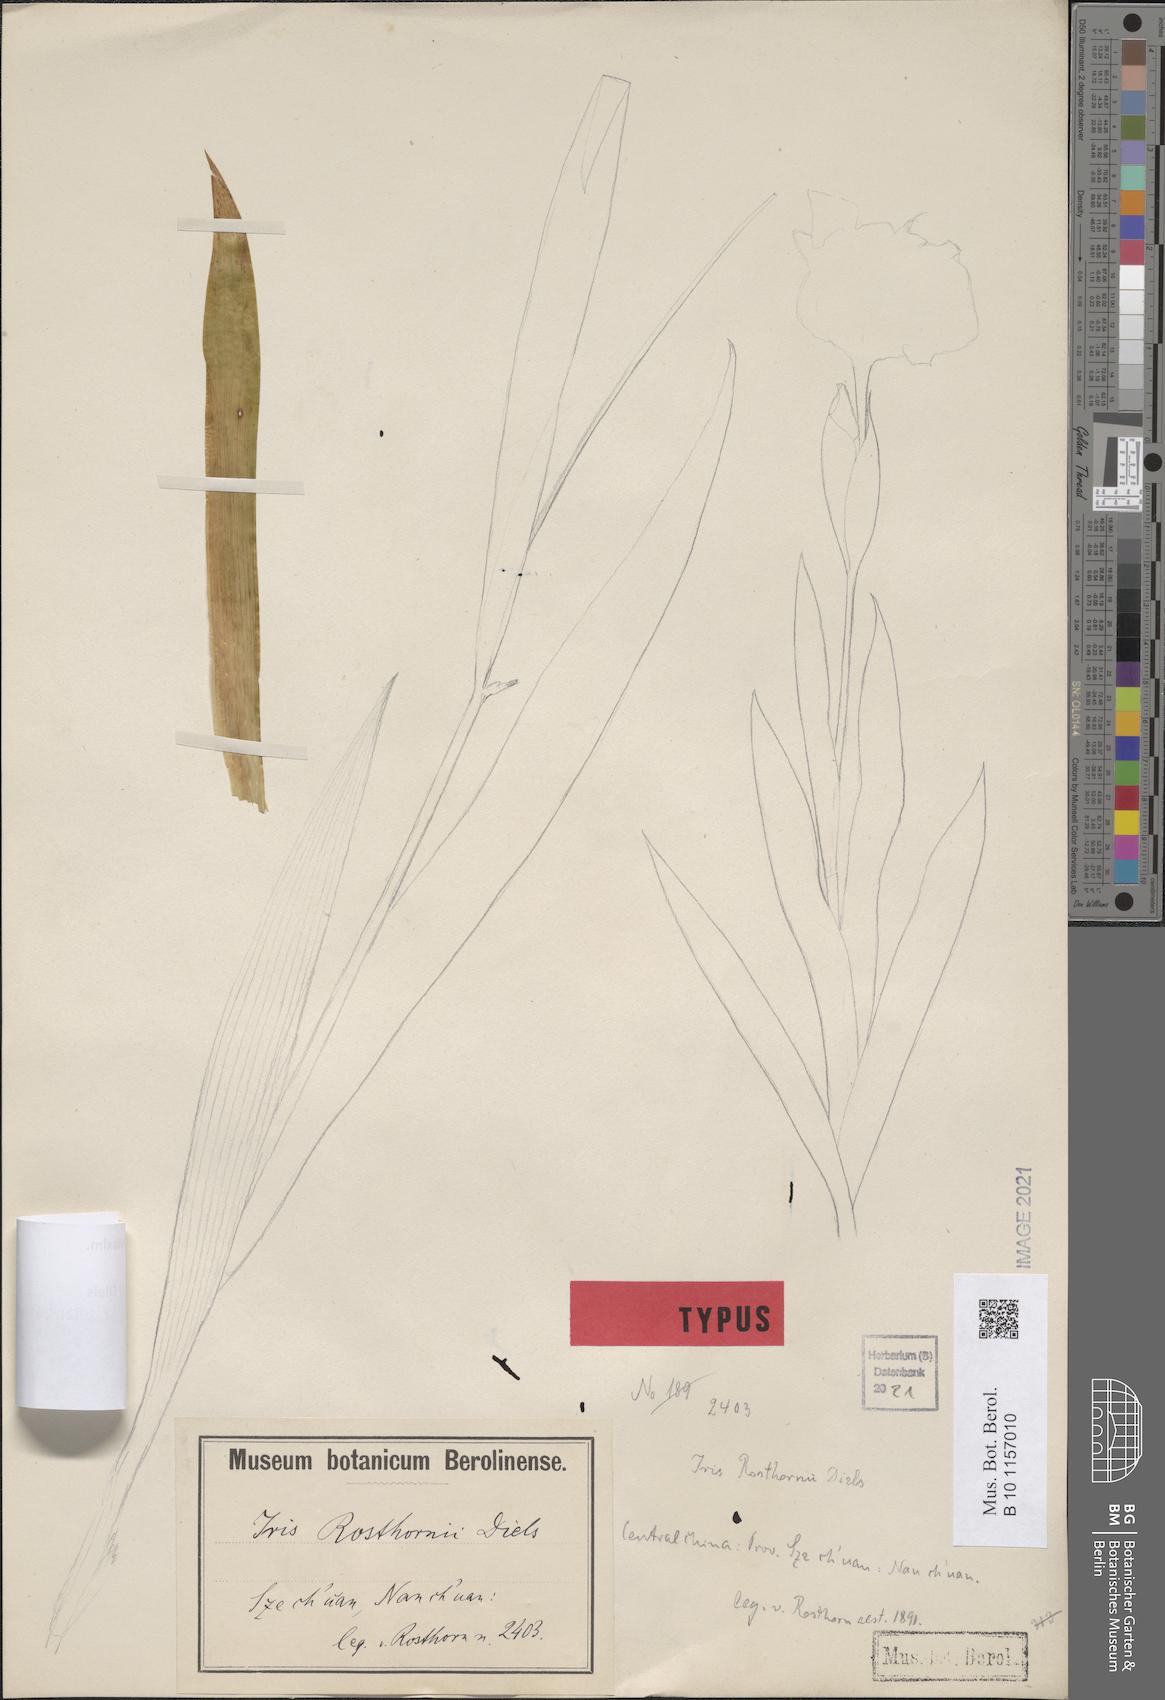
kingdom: Plantae
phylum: Tracheophyta
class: Liliopsida
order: Asparagales
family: Iridaceae
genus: Iris
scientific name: Iris tectorum
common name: Wall iris
